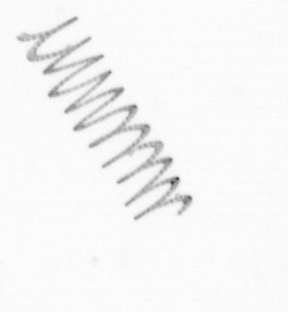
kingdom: Chromista
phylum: Ochrophyta
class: Bacillariophyceae
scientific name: Bacillariophyceae
